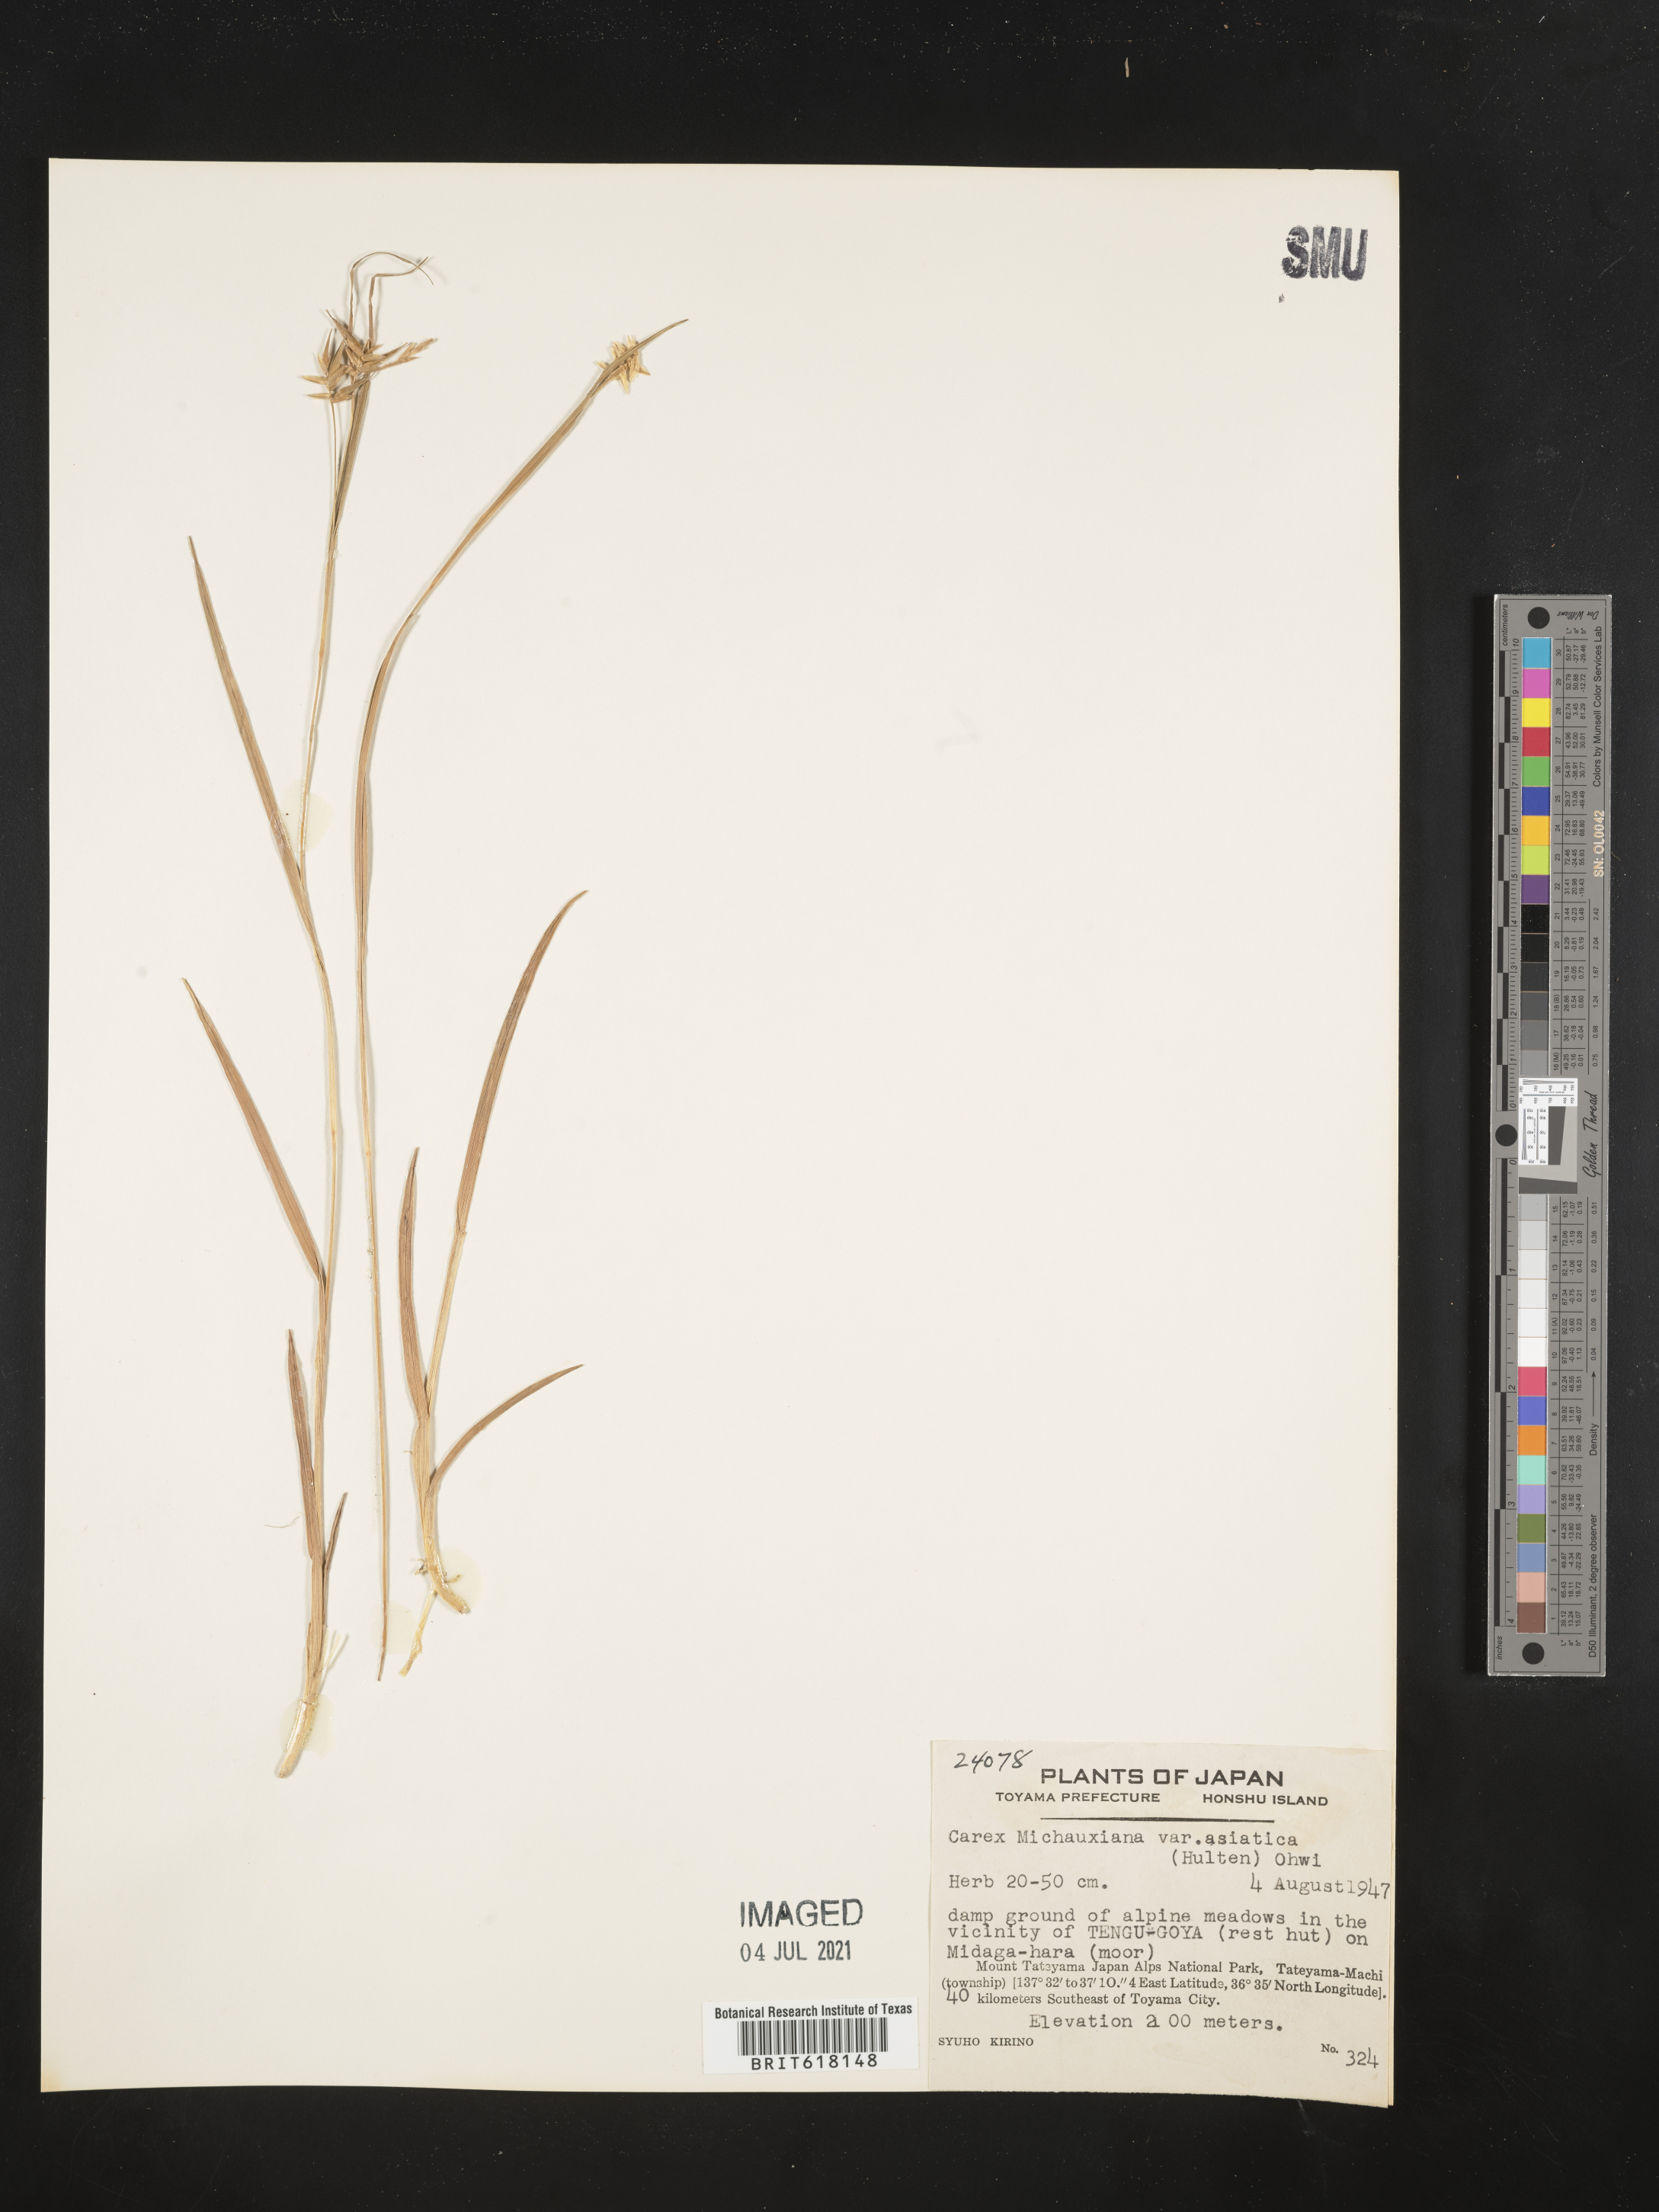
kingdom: Plantae
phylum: Tracheophyta
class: Liliopsida
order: Poales
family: Cyperaceae
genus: Carex
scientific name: Carex michauxiana
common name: Michaux's sedge
